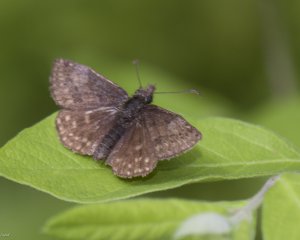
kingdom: Animalia
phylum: Arthropoda
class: Insecta
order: Lepidoptera
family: Hesperiidae
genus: Erynnis
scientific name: Erynnis icelus
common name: Dreamy Duskywing
